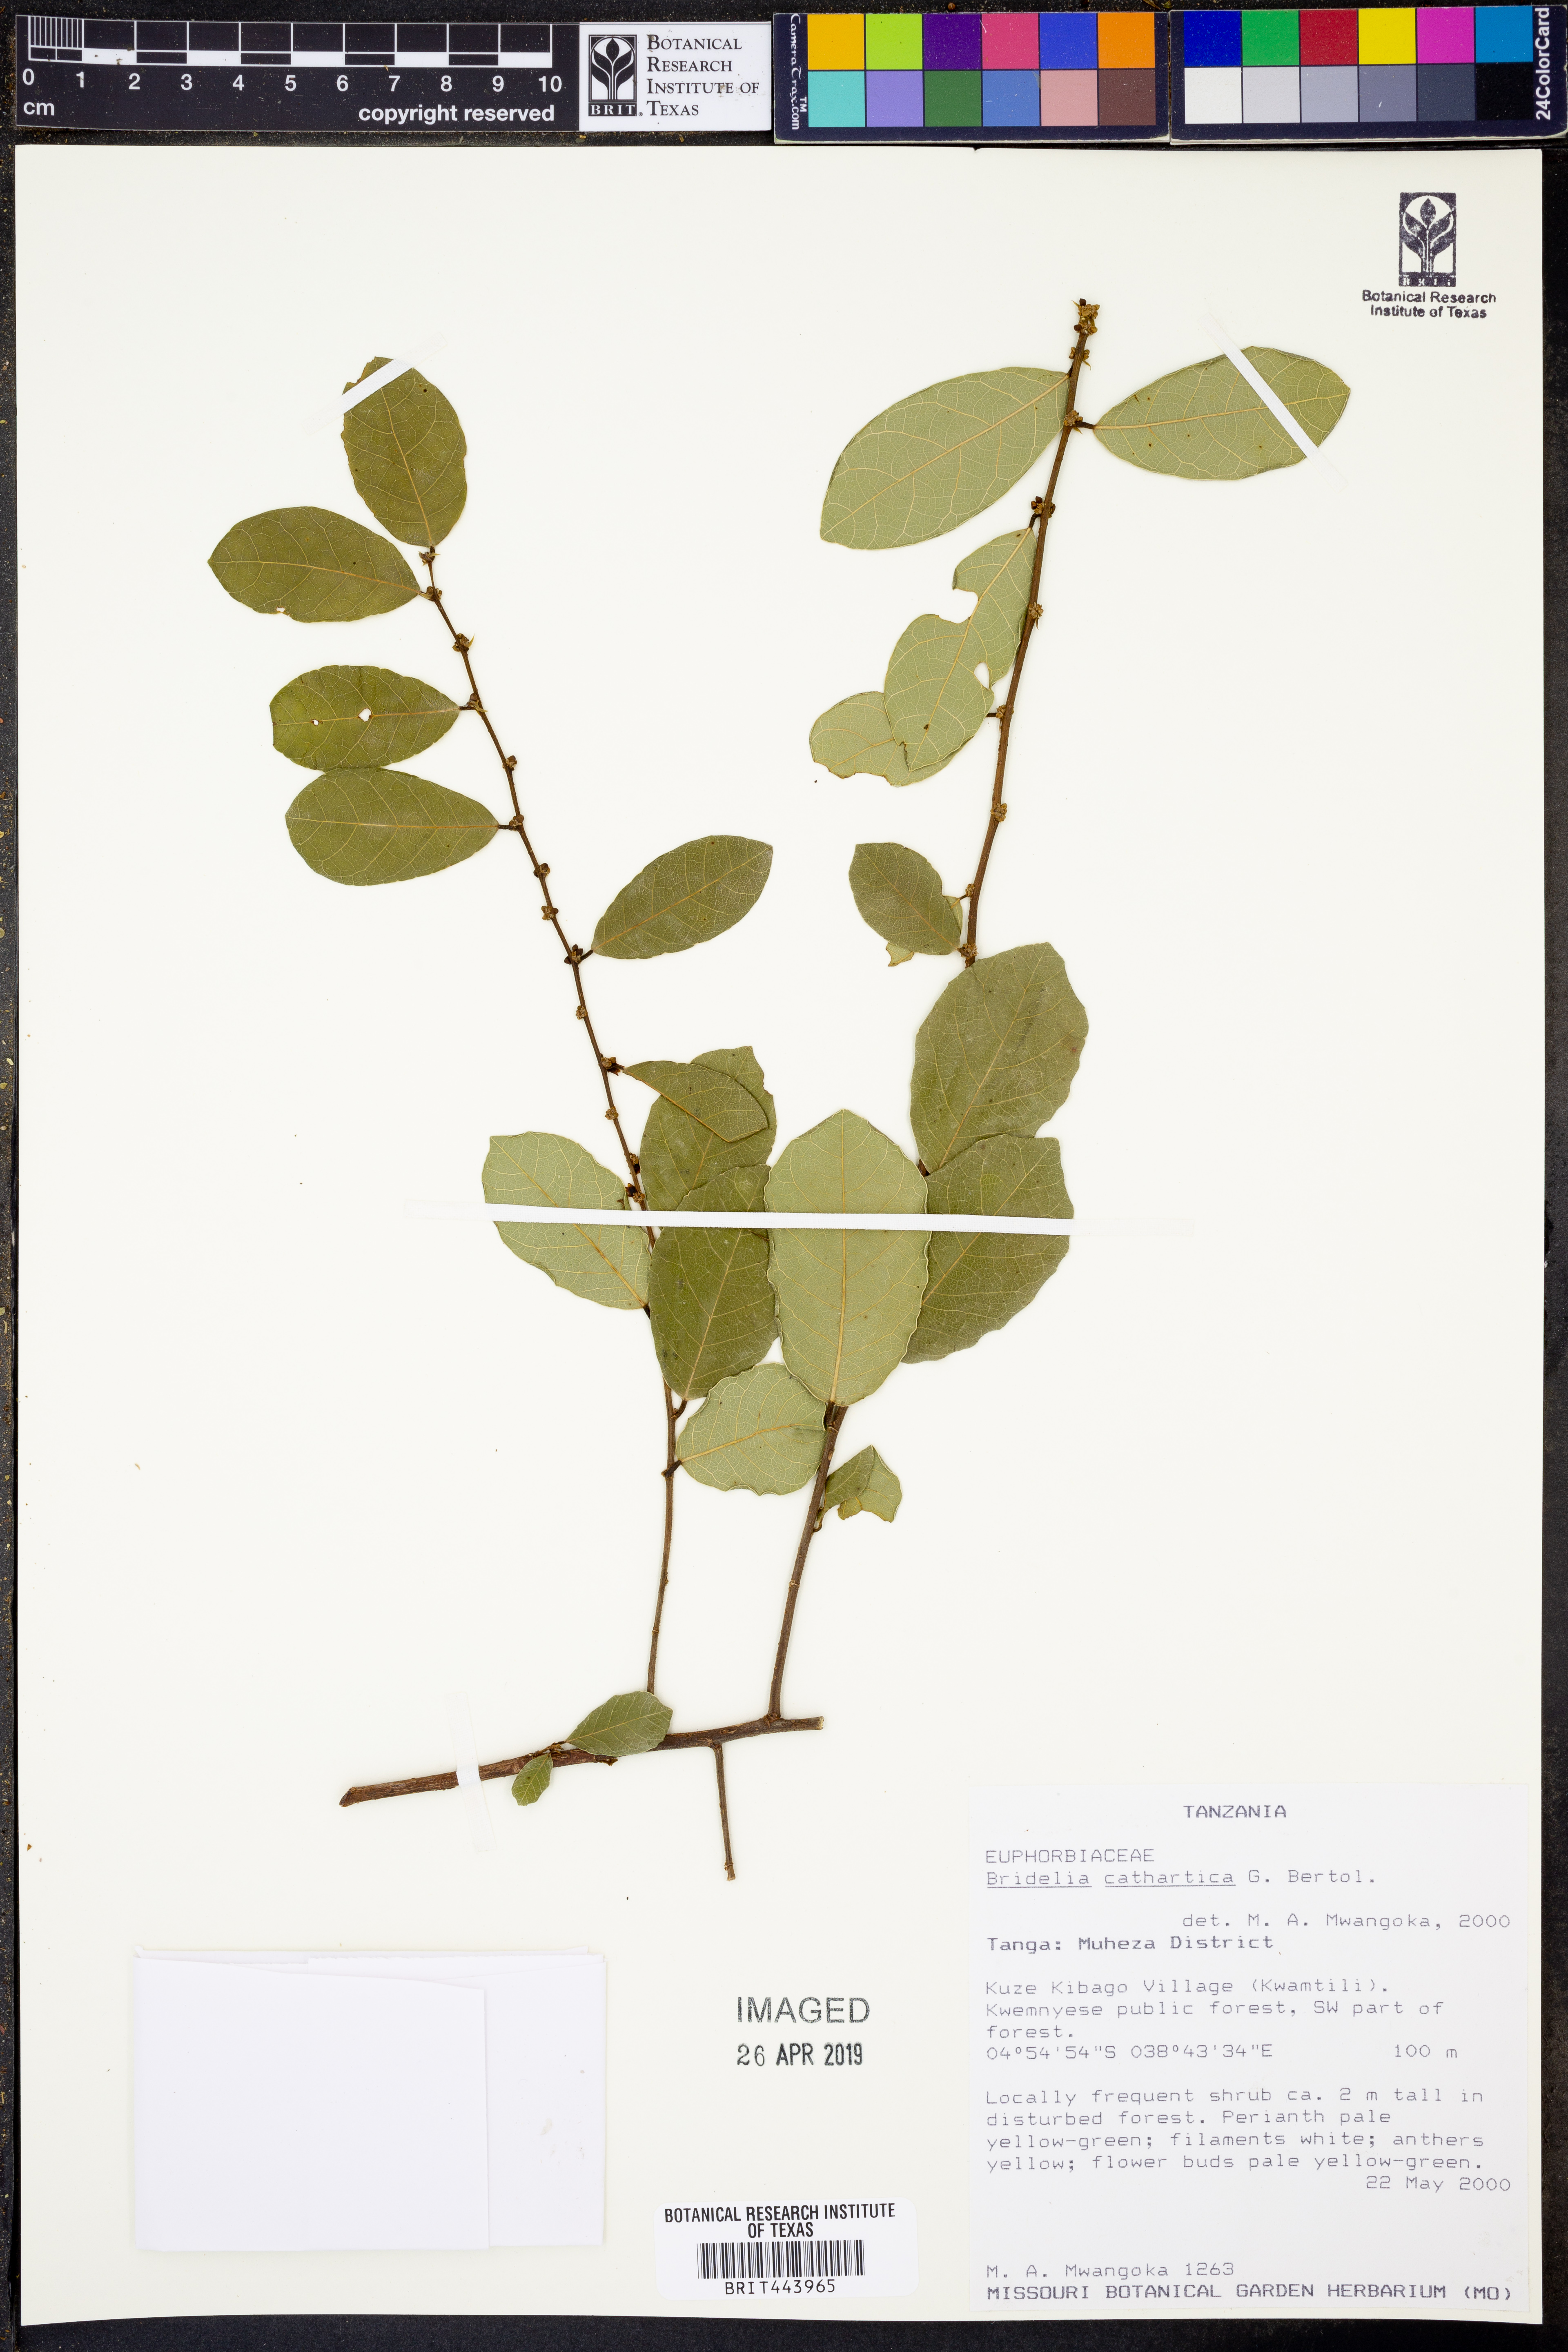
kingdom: Plantae
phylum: Tracheophyta
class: Magnoliopsida
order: Malpighiales
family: Phyllanthaceae
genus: Bridelia
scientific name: Bridelia cathartica
